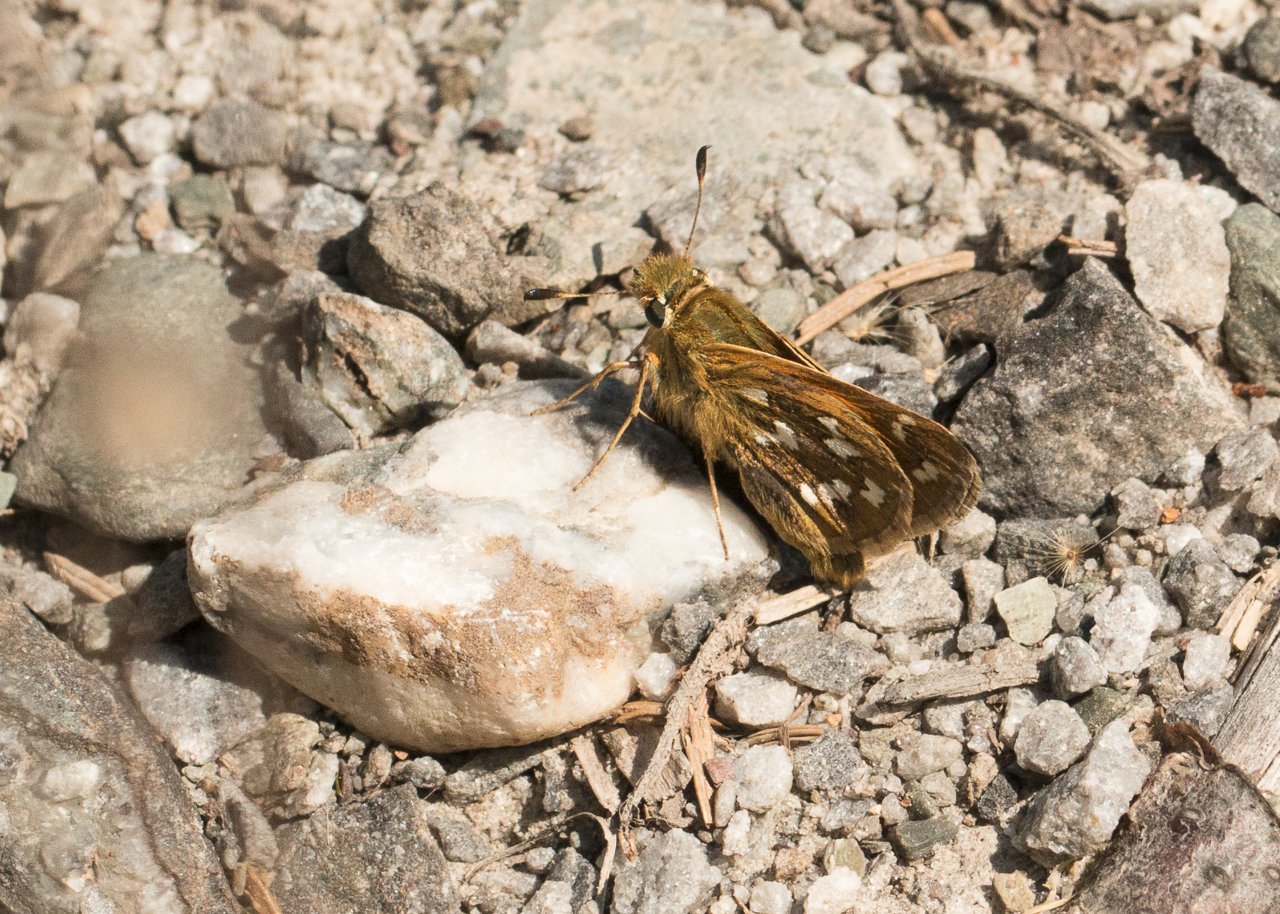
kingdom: Animalia
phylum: Arthropoda
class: Insecta
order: Lepidoptera
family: Hesperiidae
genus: Hesperia
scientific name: Hesperia comma
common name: Common Branded Skipper
